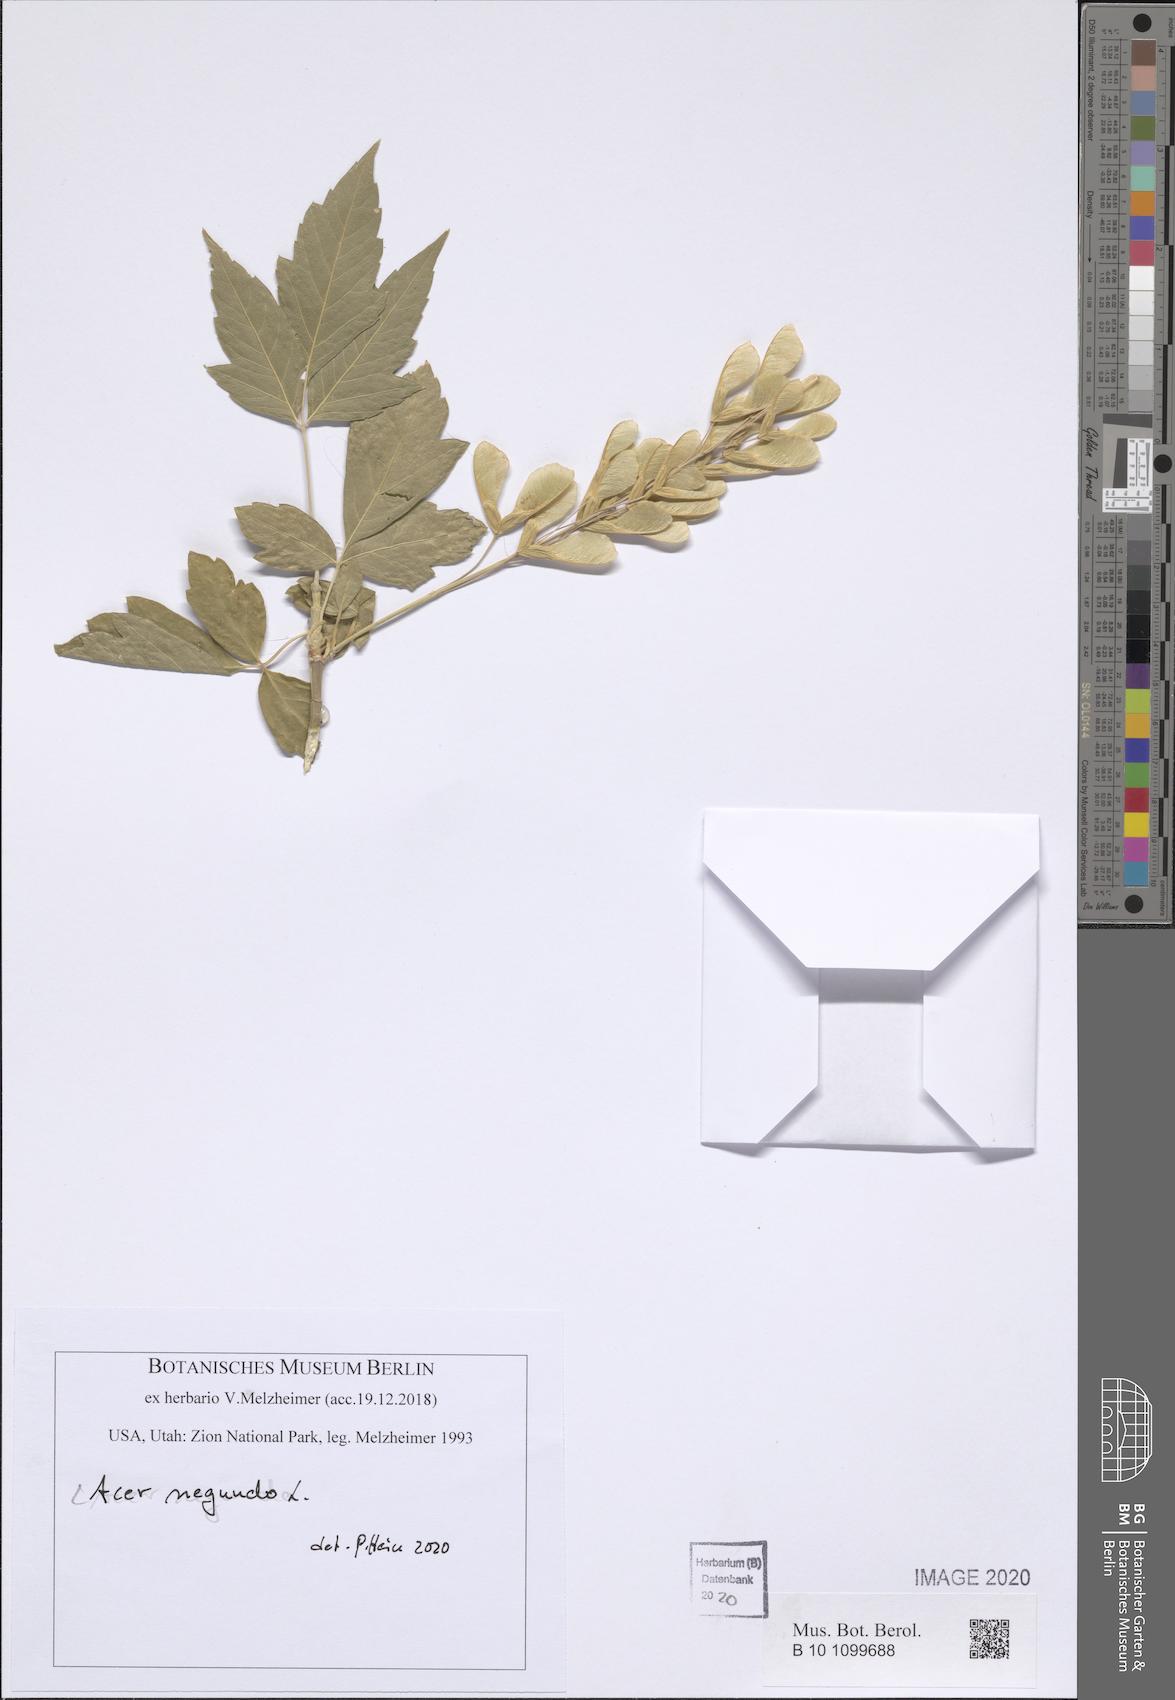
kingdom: Plantae
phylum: Tracheophyta
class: Magnoliopsida
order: Sapindales
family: Sapindaceae
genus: Acer
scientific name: Acer negundo
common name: Ashleaf maple
